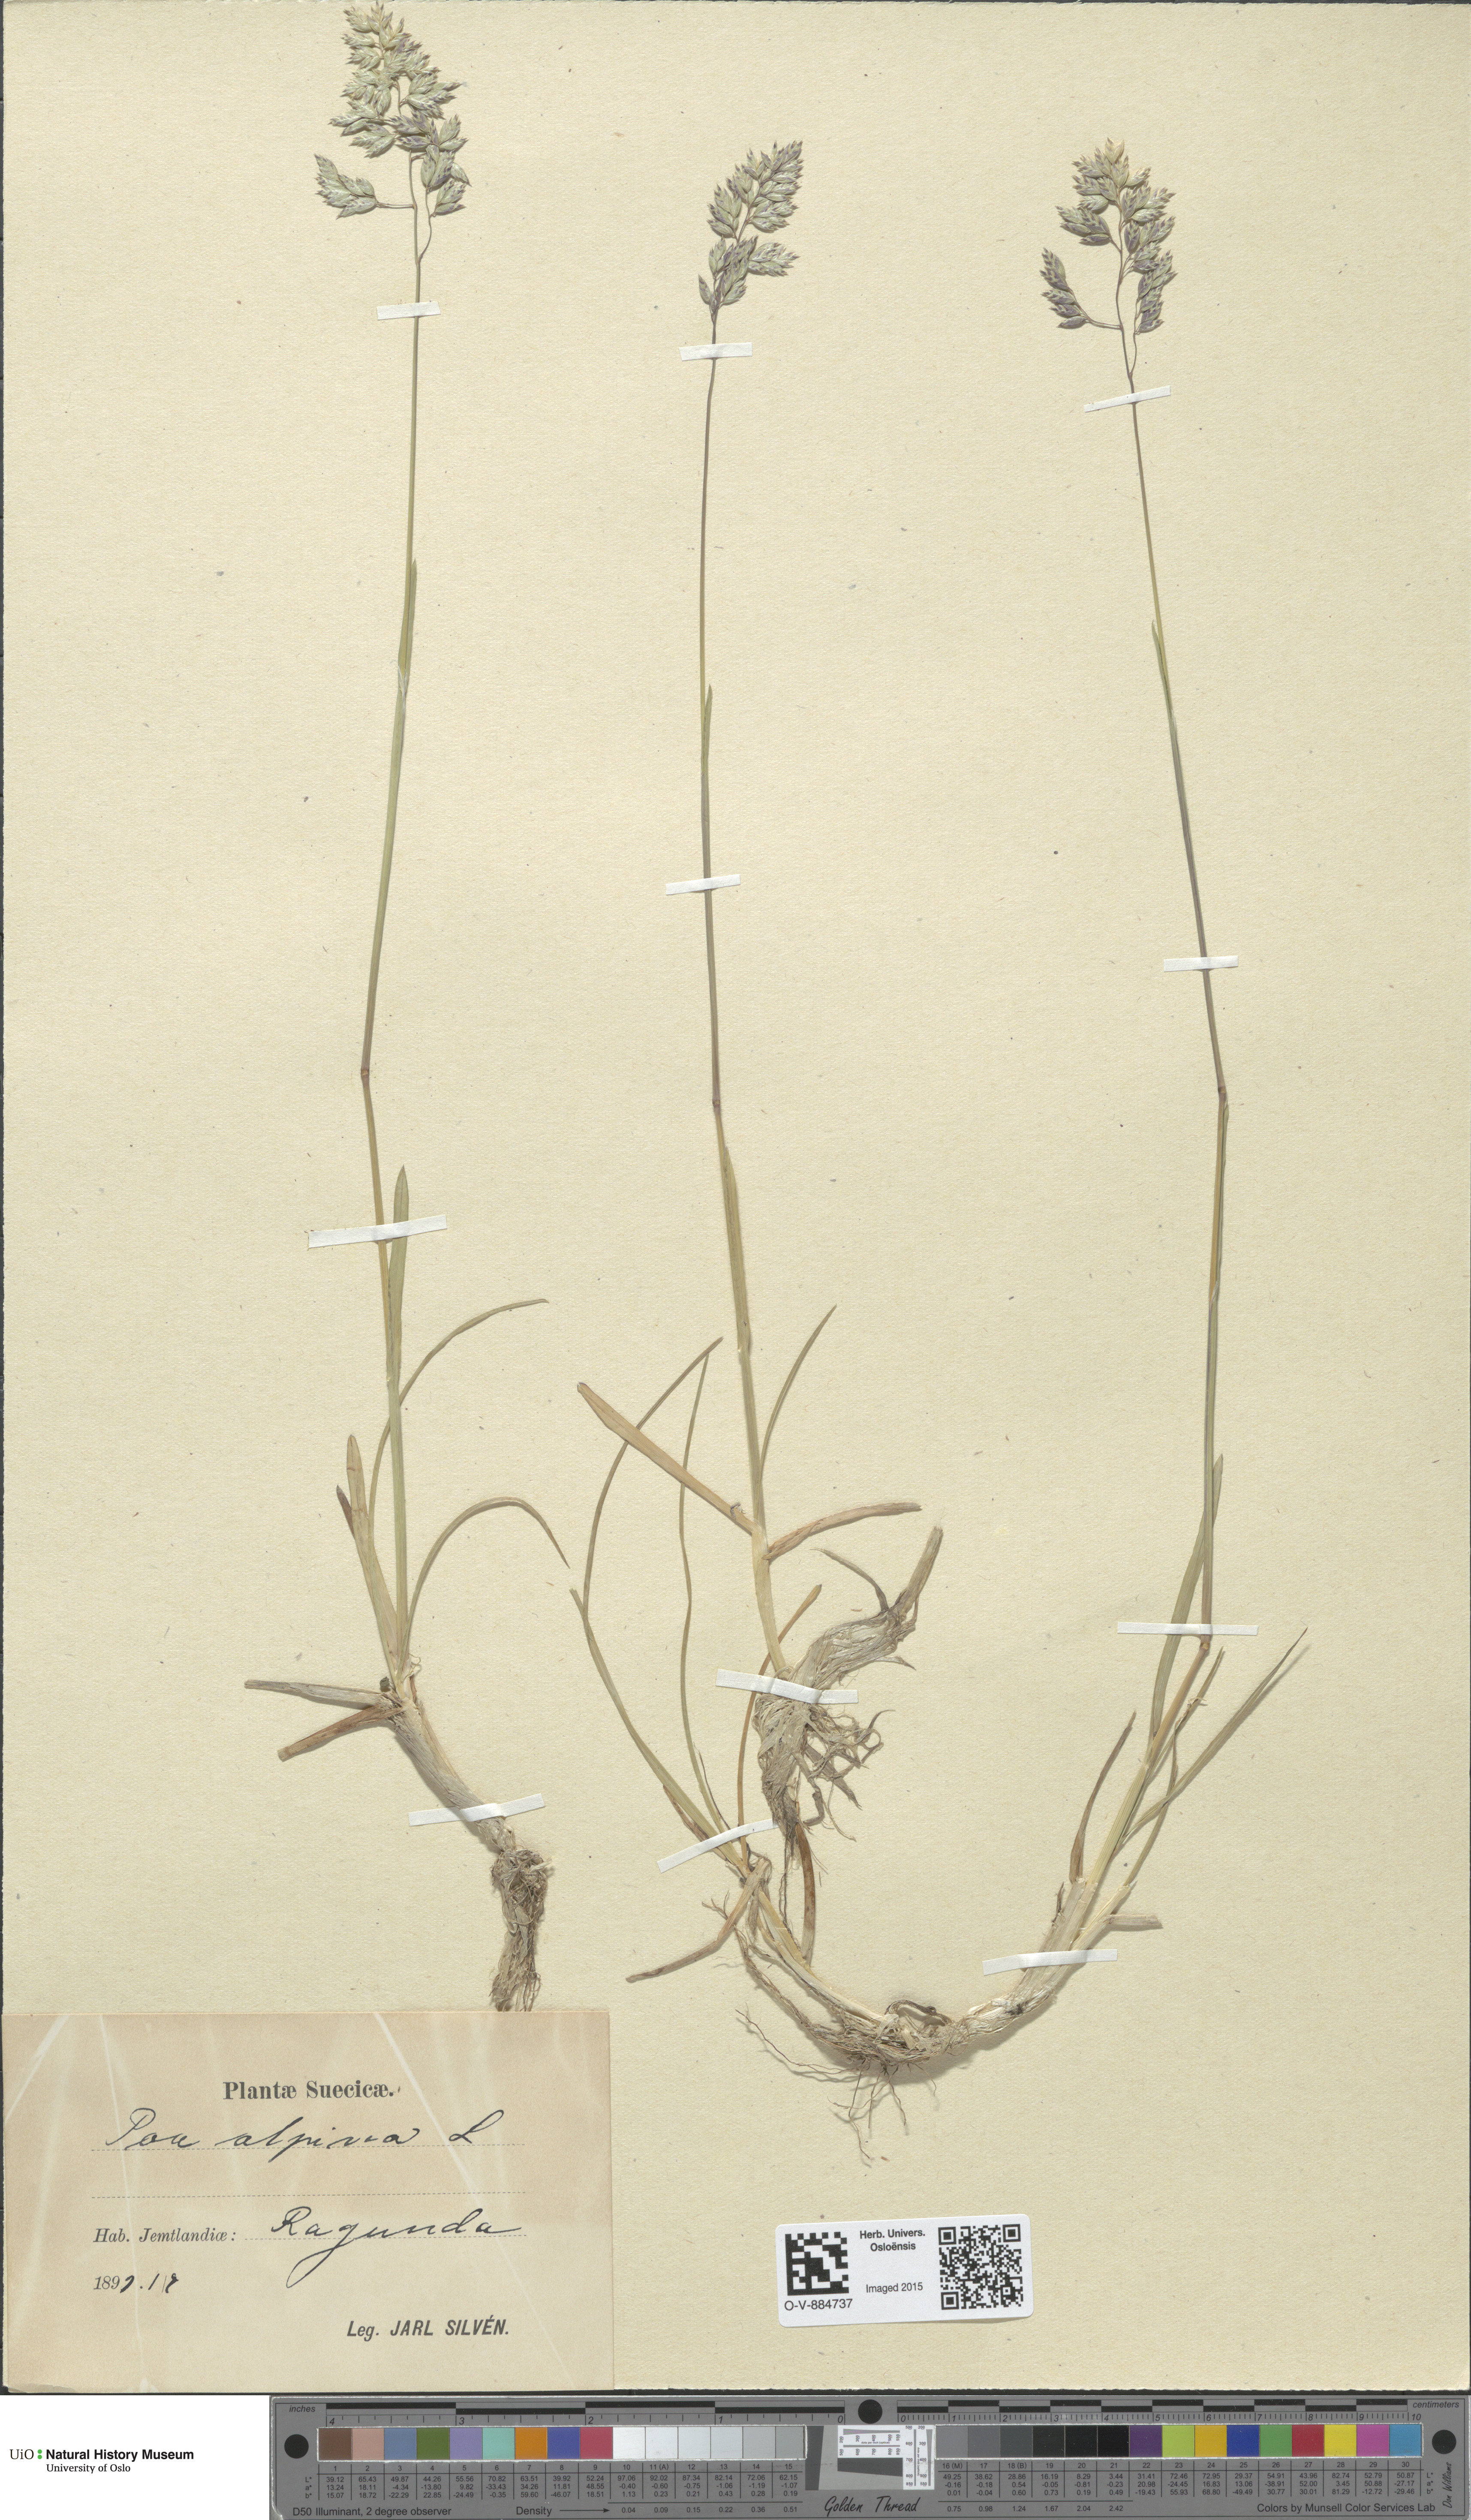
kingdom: Plantae
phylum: Tracheophyta
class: Liliopsida
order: Poales
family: Poaceae
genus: Poa
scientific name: Poa alpina
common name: Alpine bluegrass
